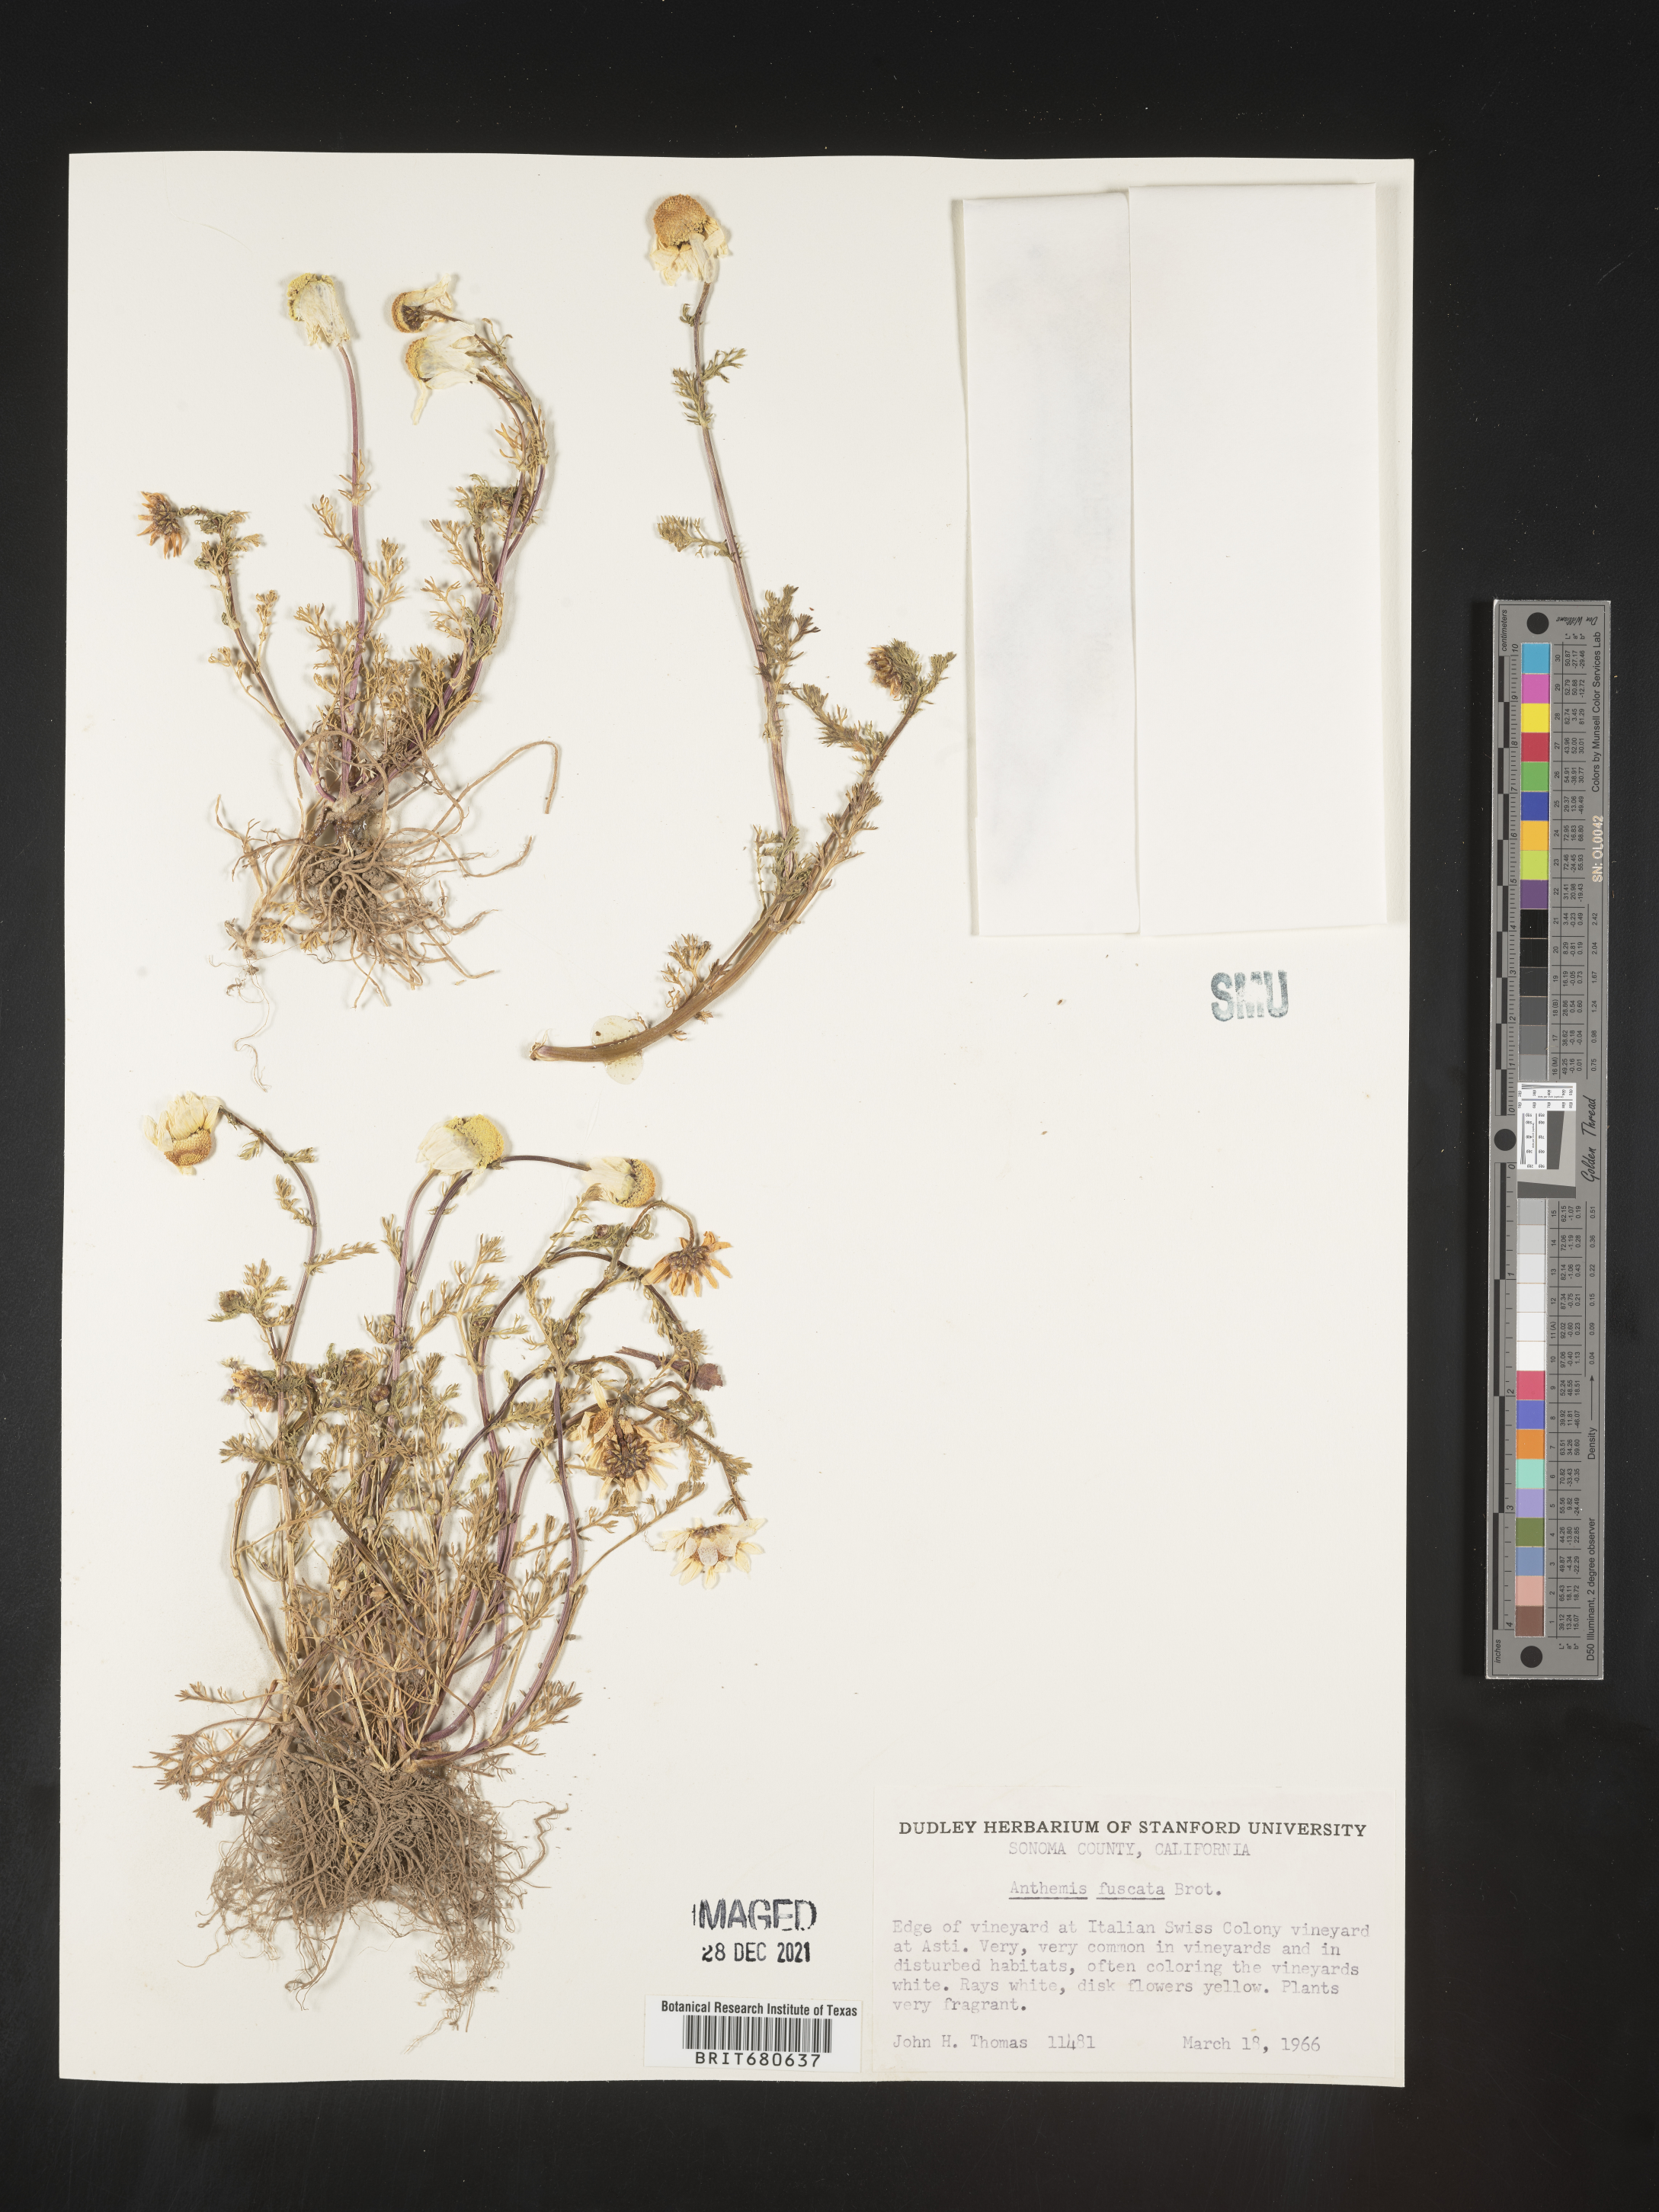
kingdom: Plantae
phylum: Tracheophyta
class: Magnoliopsida
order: Asterales
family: Asteraceae
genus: Anthemis
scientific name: Anthemis
